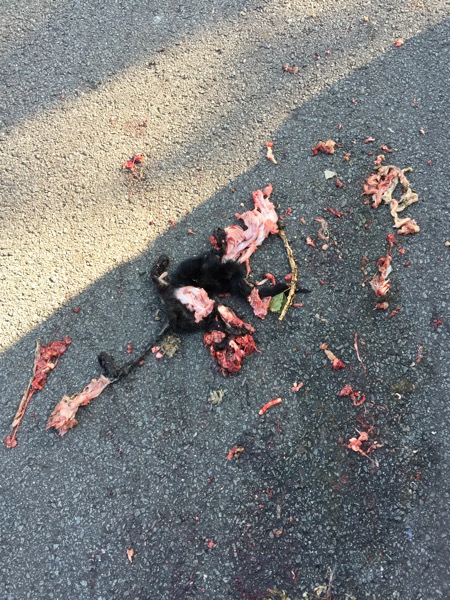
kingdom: Animalia
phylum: Chordata
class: Mammalia
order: Carnivora
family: Felidae
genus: Felis
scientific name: Felis catus
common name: Domestic cat
